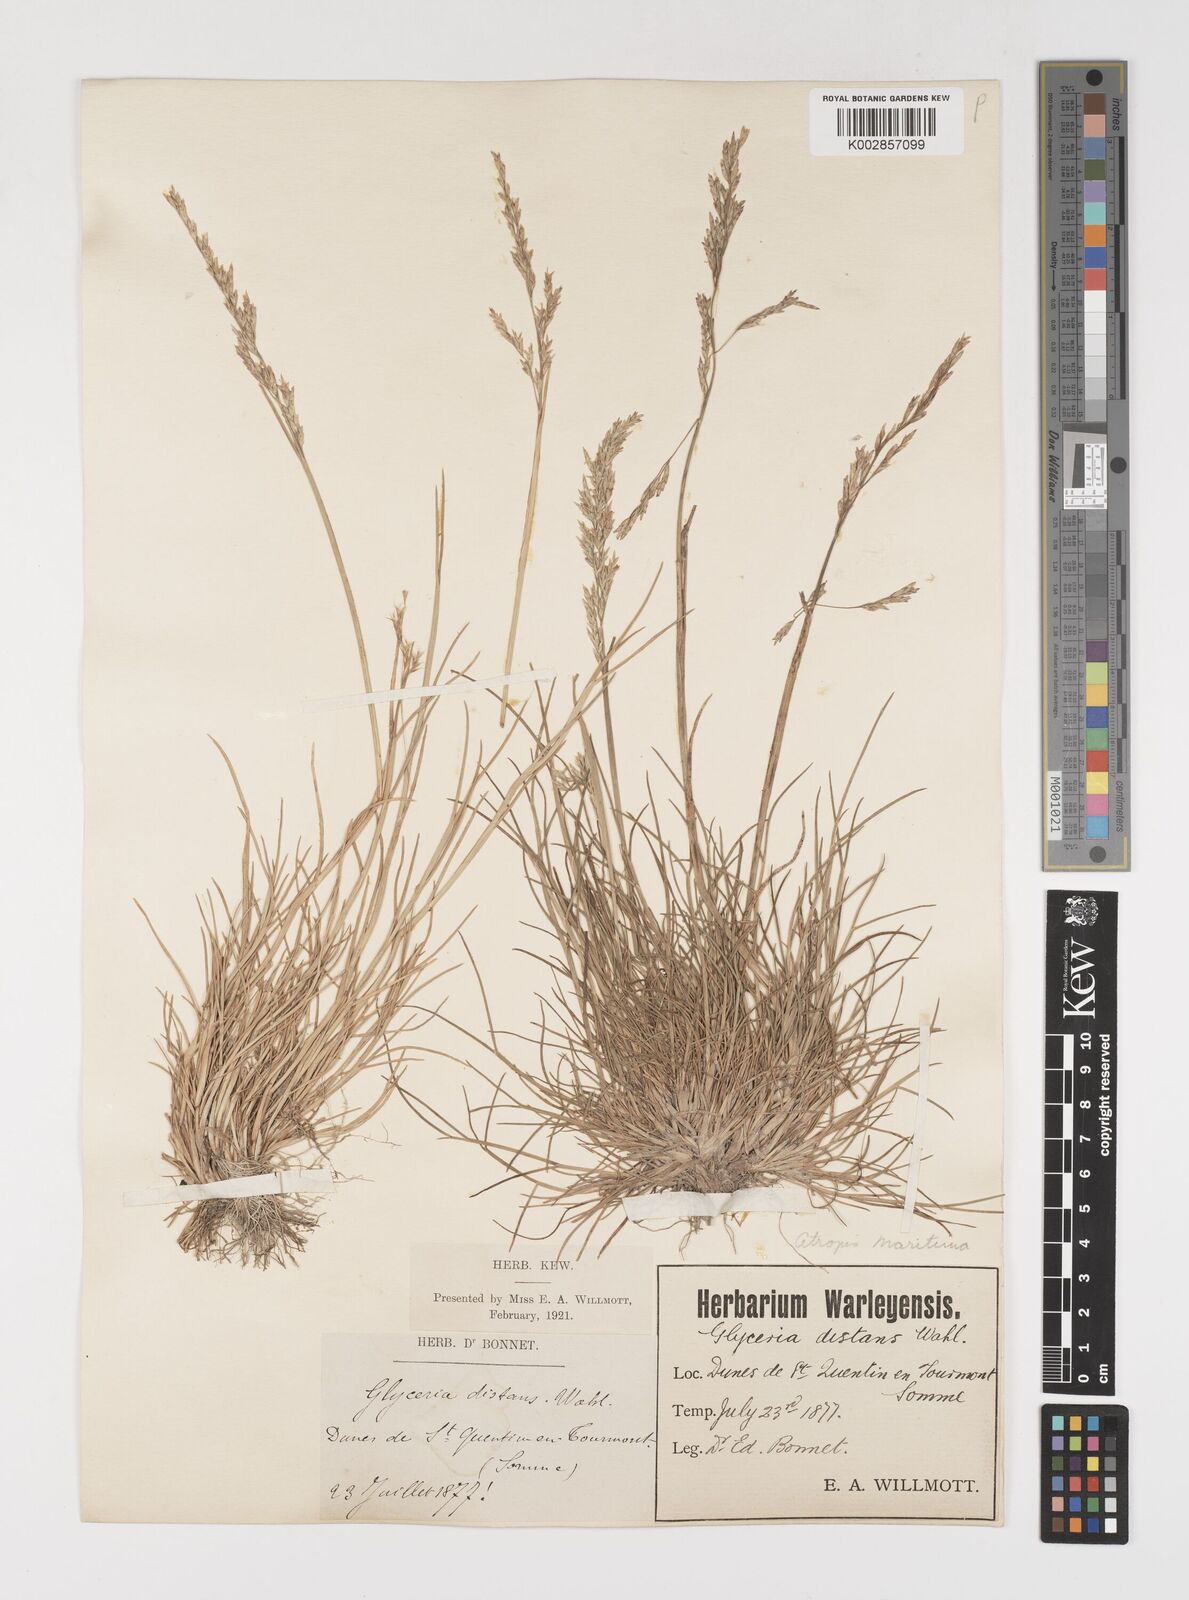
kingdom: Plantae
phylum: Tracheophyta
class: Liliopsida
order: Poales
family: Poaceae
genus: Puccinellia
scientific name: Puccinellia maritima
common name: Common saltmarsh grass
